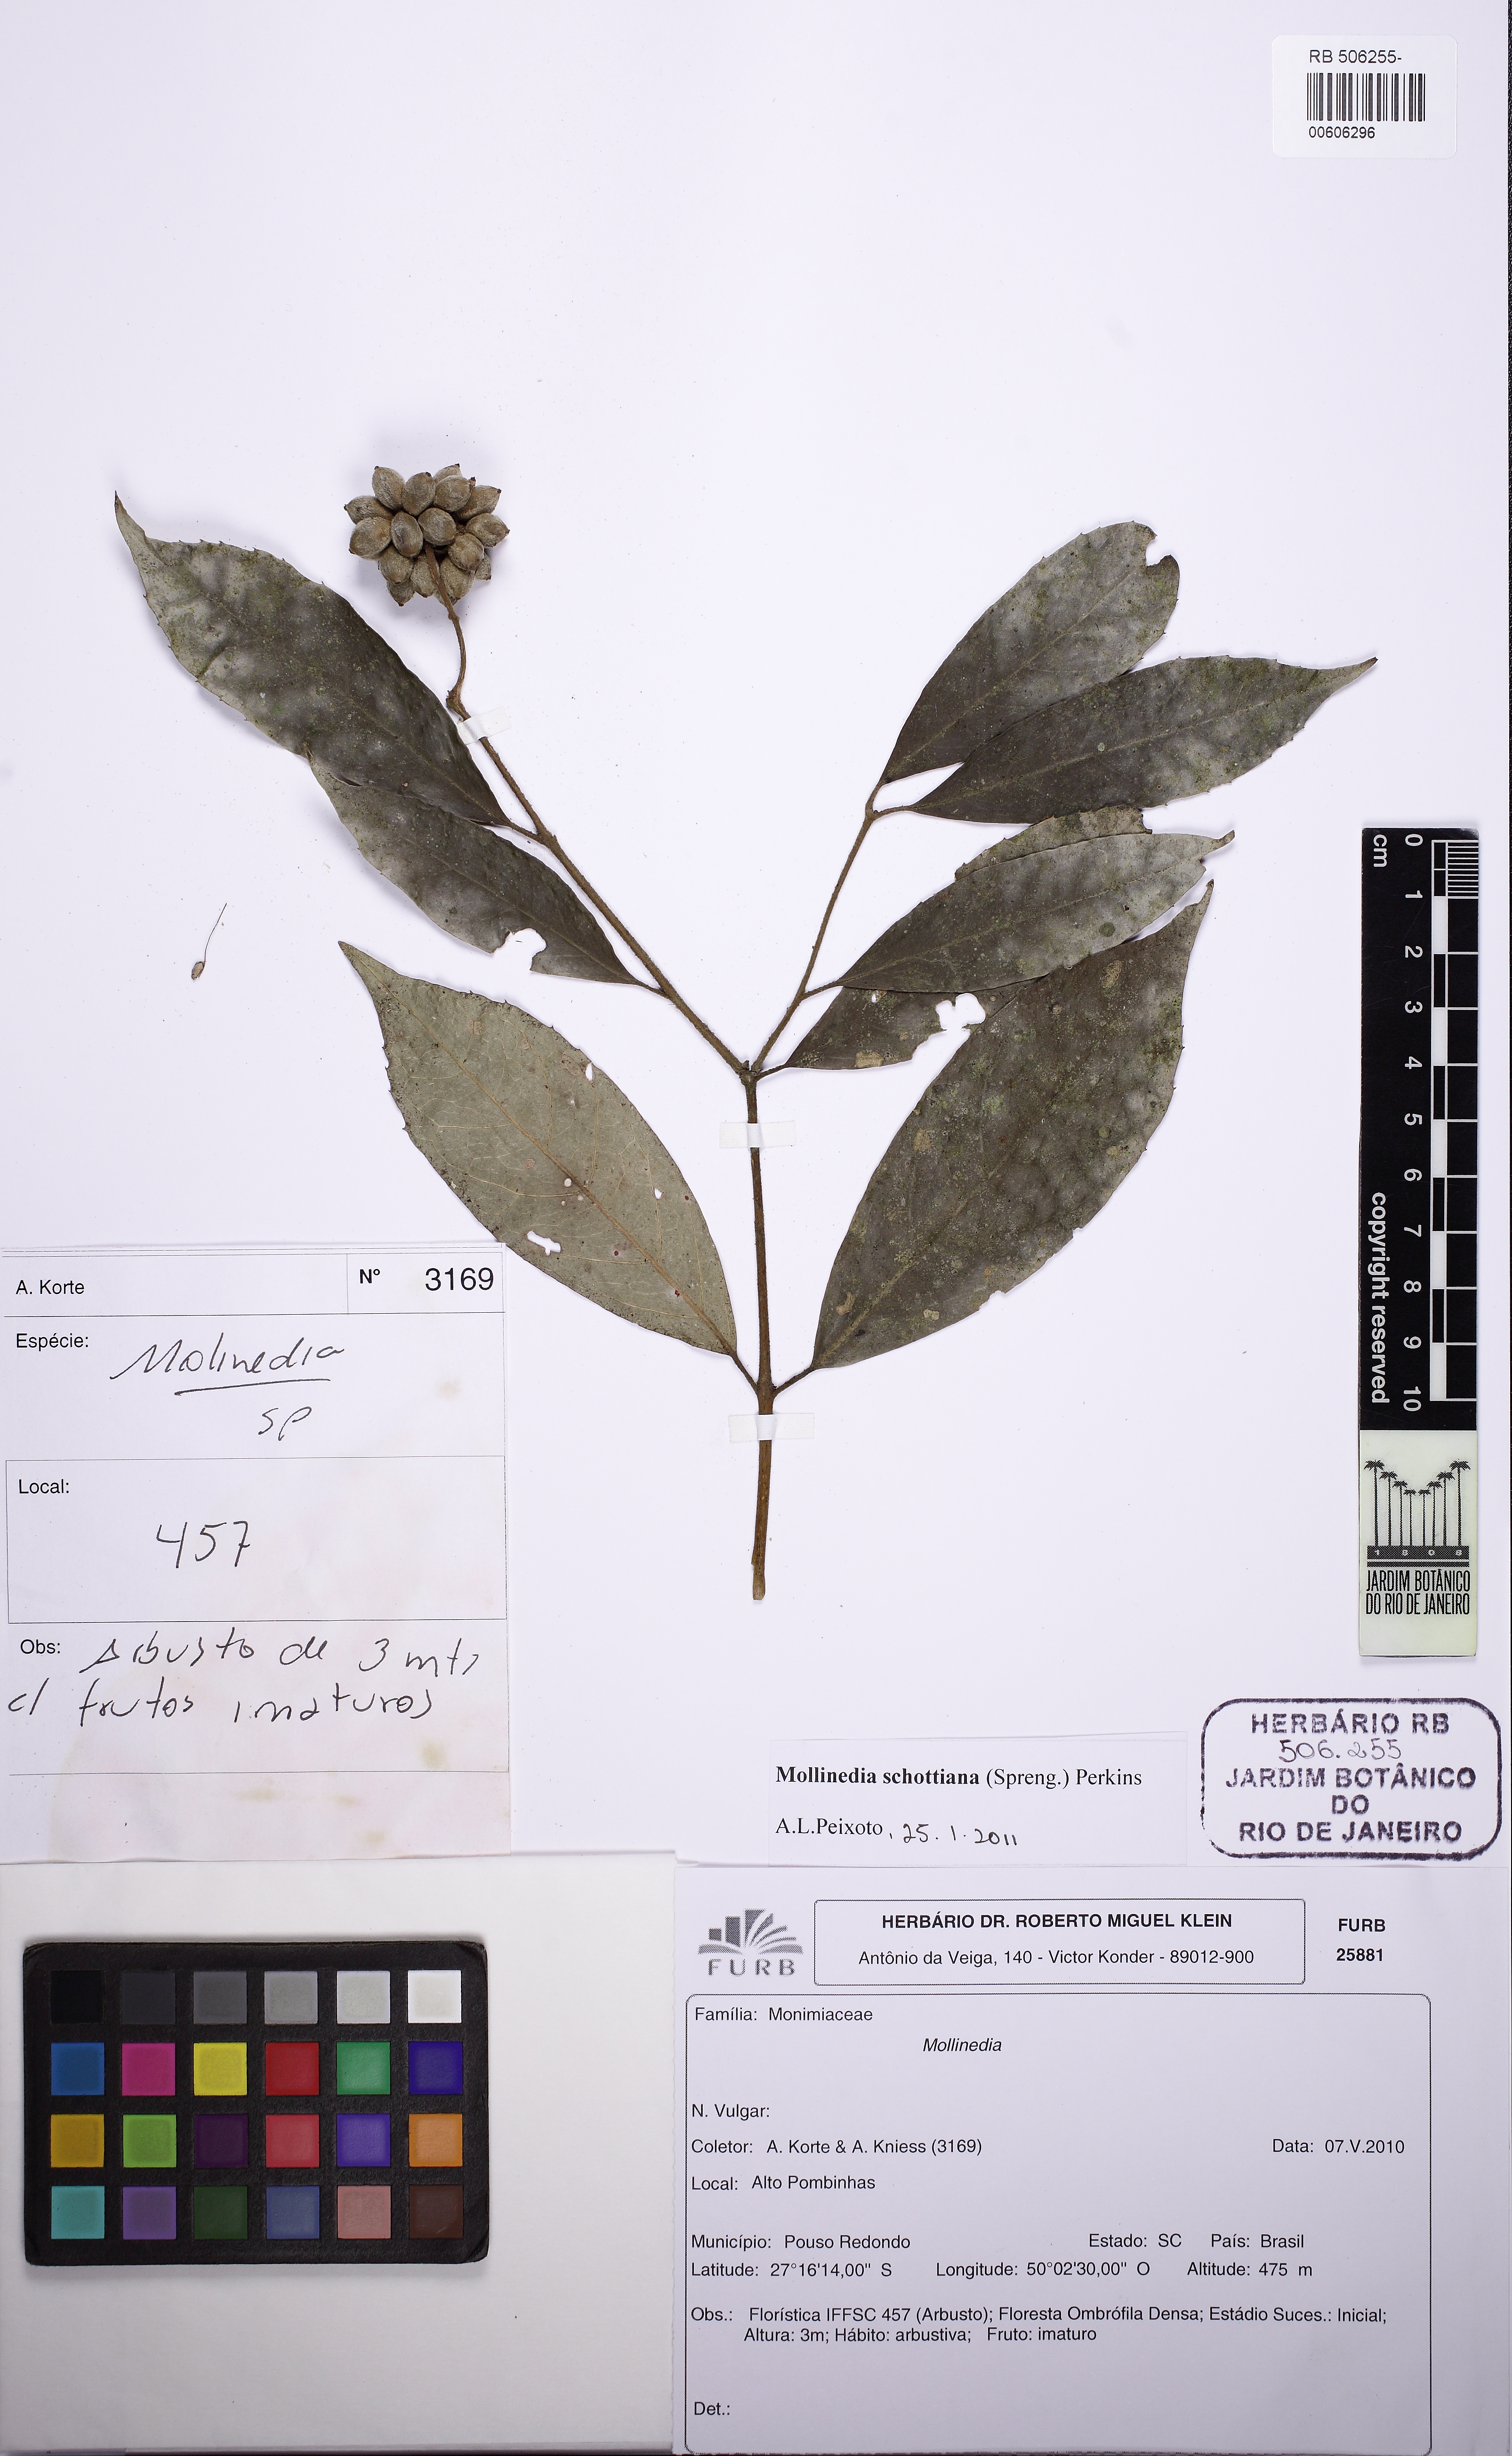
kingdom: Plantae
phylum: Tracheophyta
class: Magnoliopsida
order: Laurales
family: Monimiaceae
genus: Mollinedia
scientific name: Mollinedia umbellata
